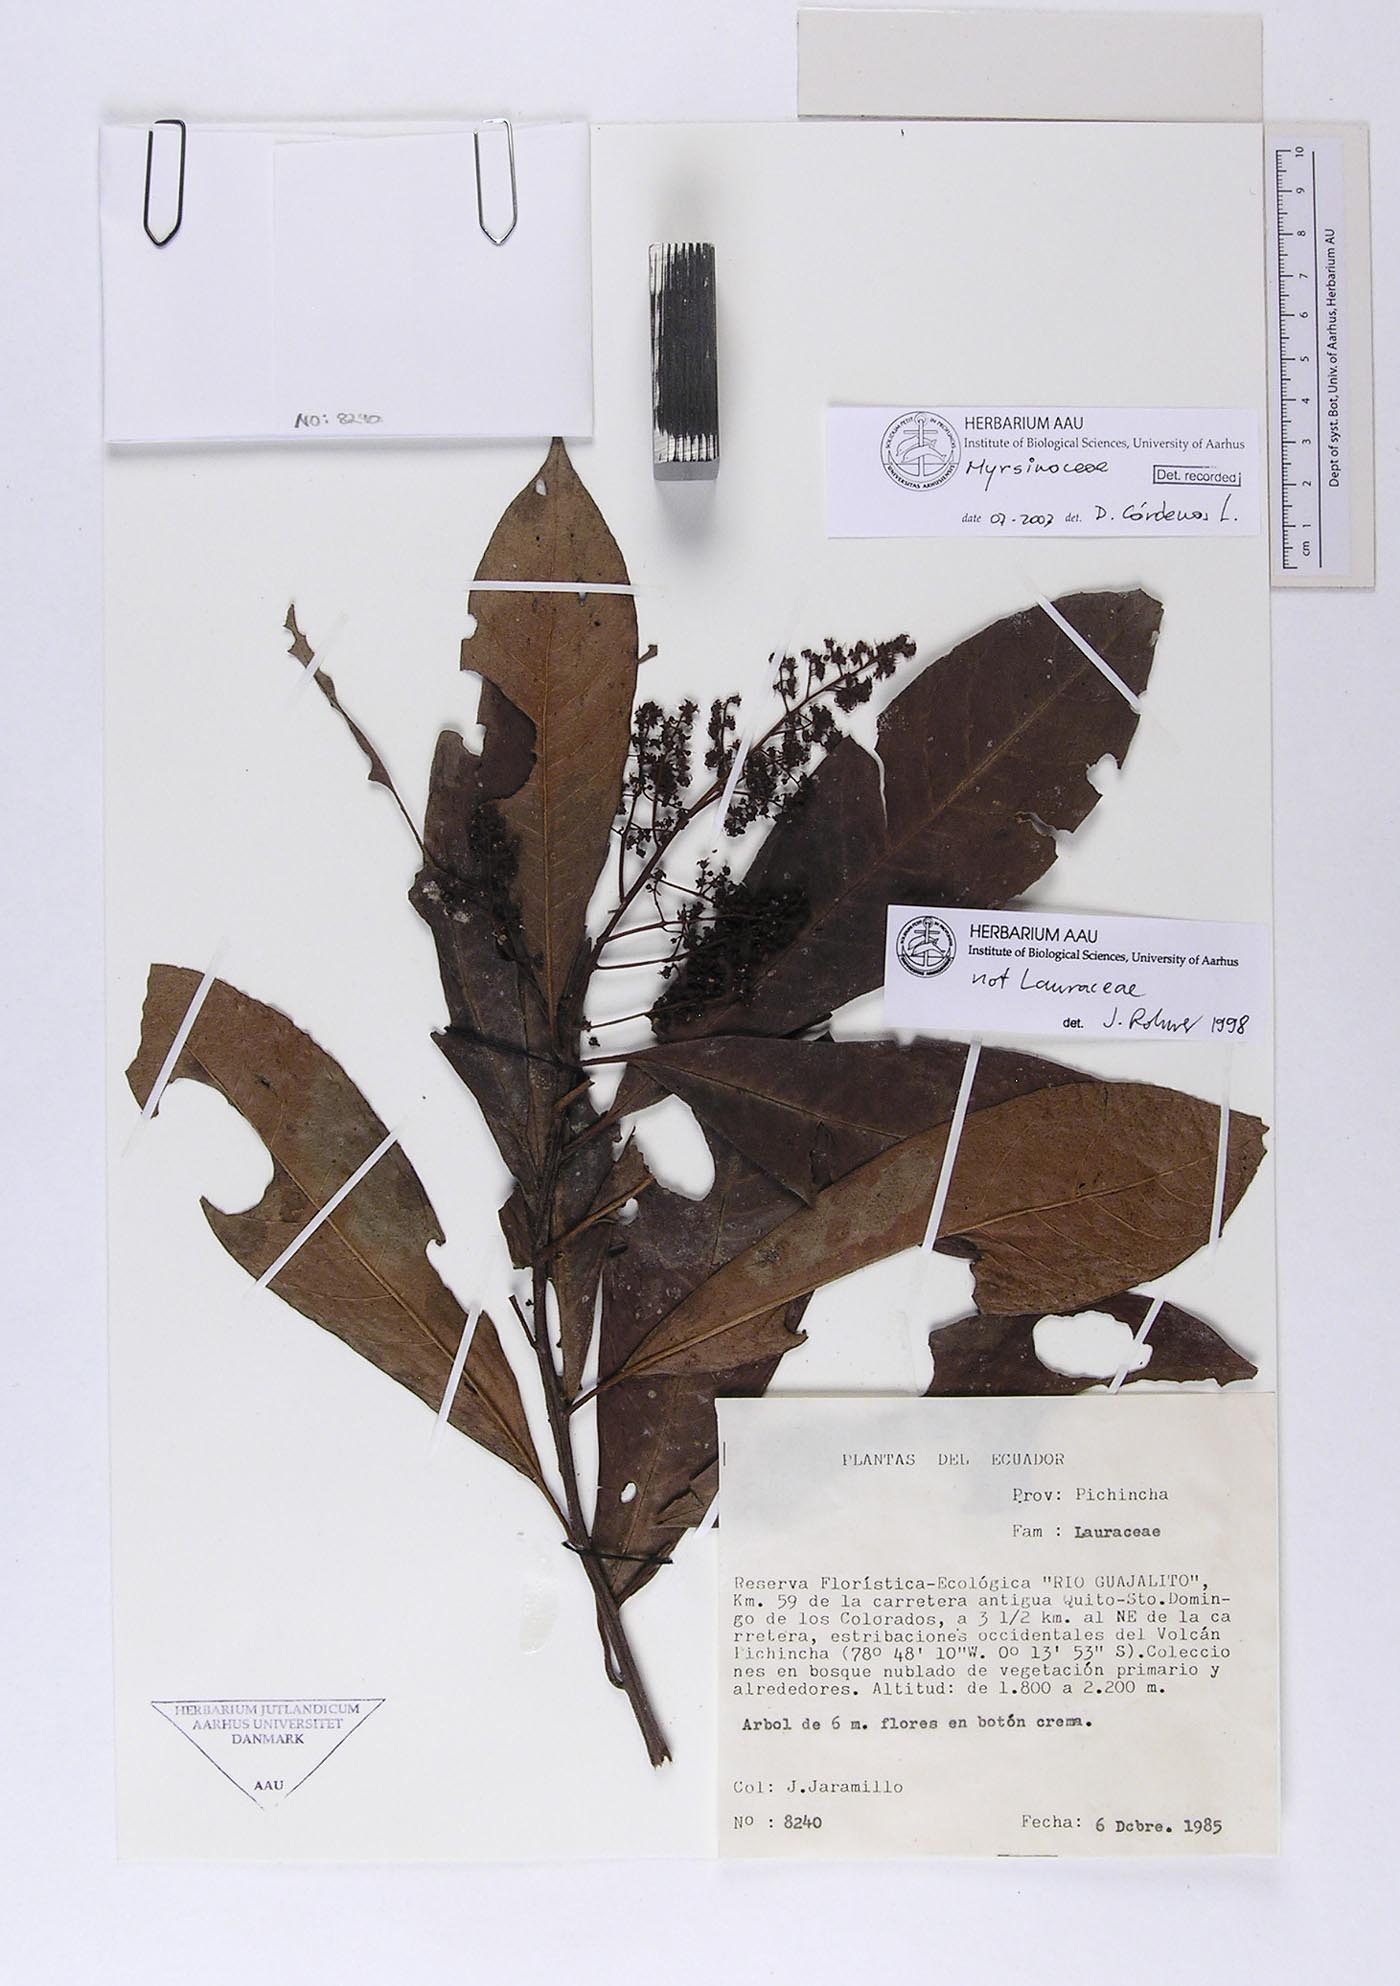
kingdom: Plantae
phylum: Tracheophyta
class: Magnoliopsida
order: Ericales
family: Primulaceae
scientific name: Primulaceae
